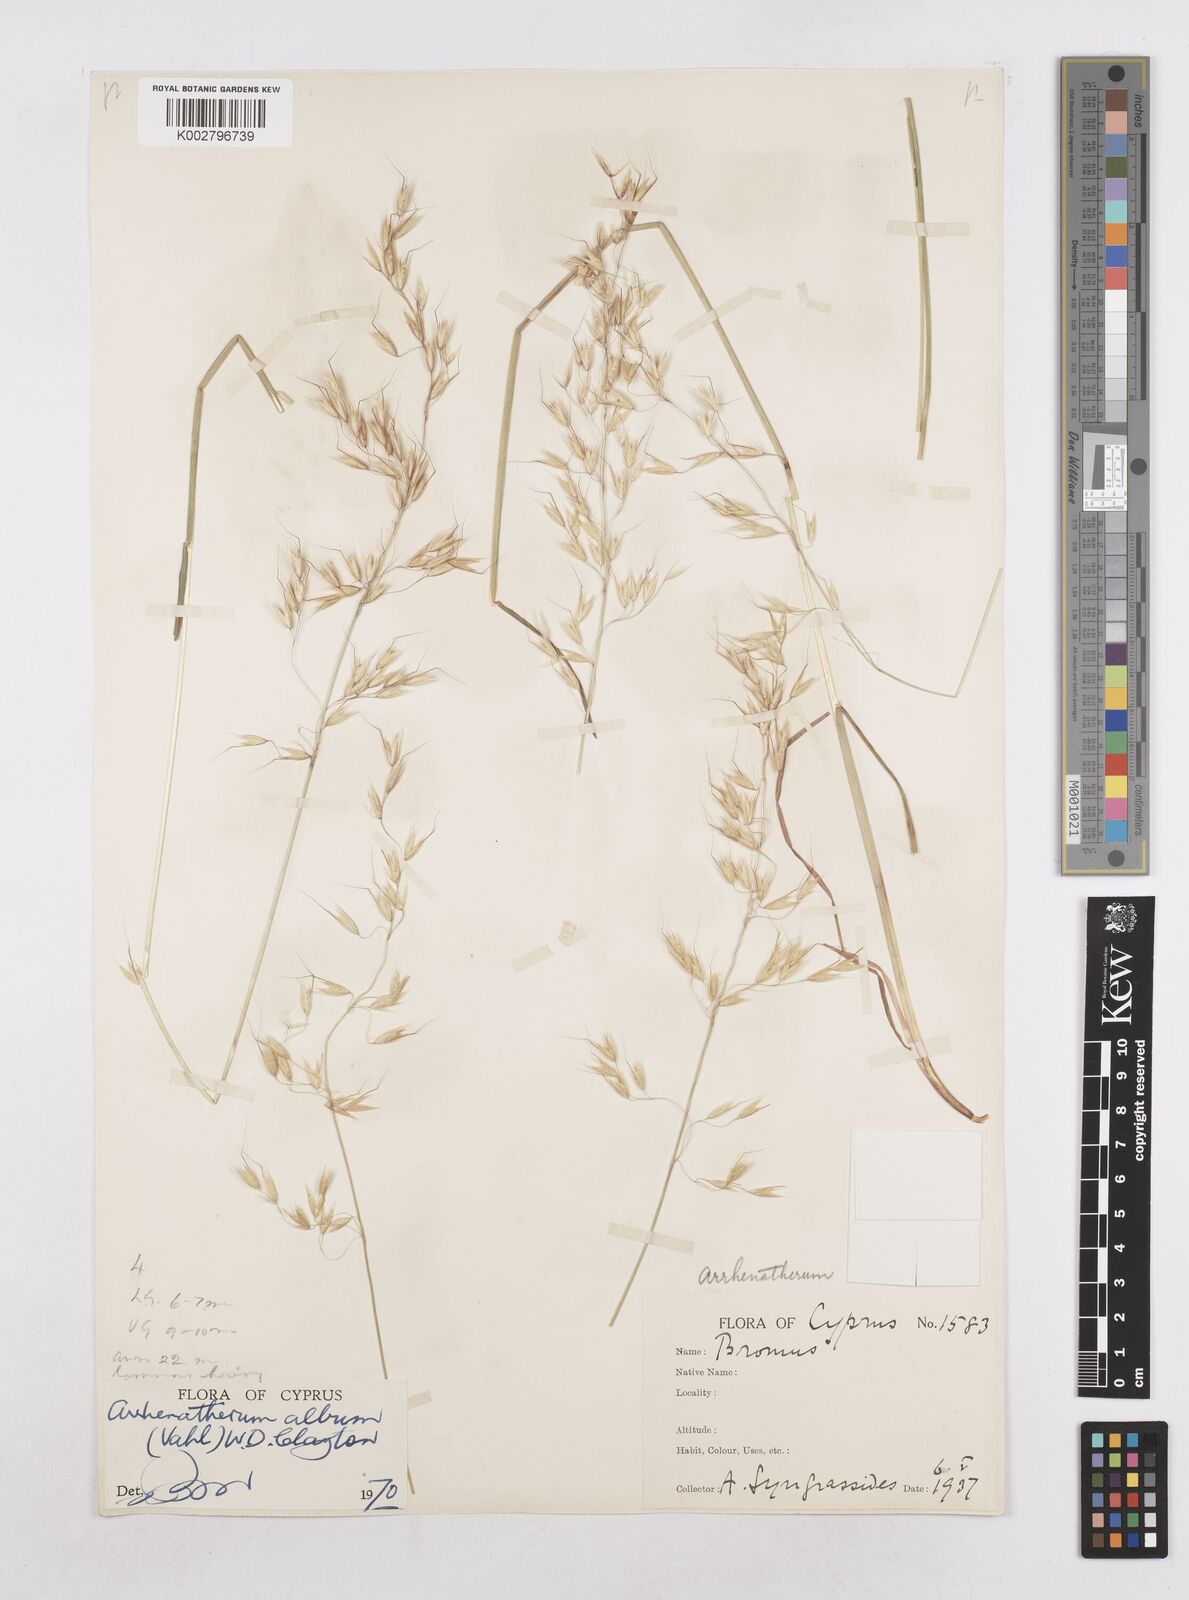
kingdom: Plantae
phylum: Tracheophyta
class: Liliopsida
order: Poales
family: Poaceae
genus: Arrhenatherum
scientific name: Arrhenatherum album
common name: Tall oat grass
